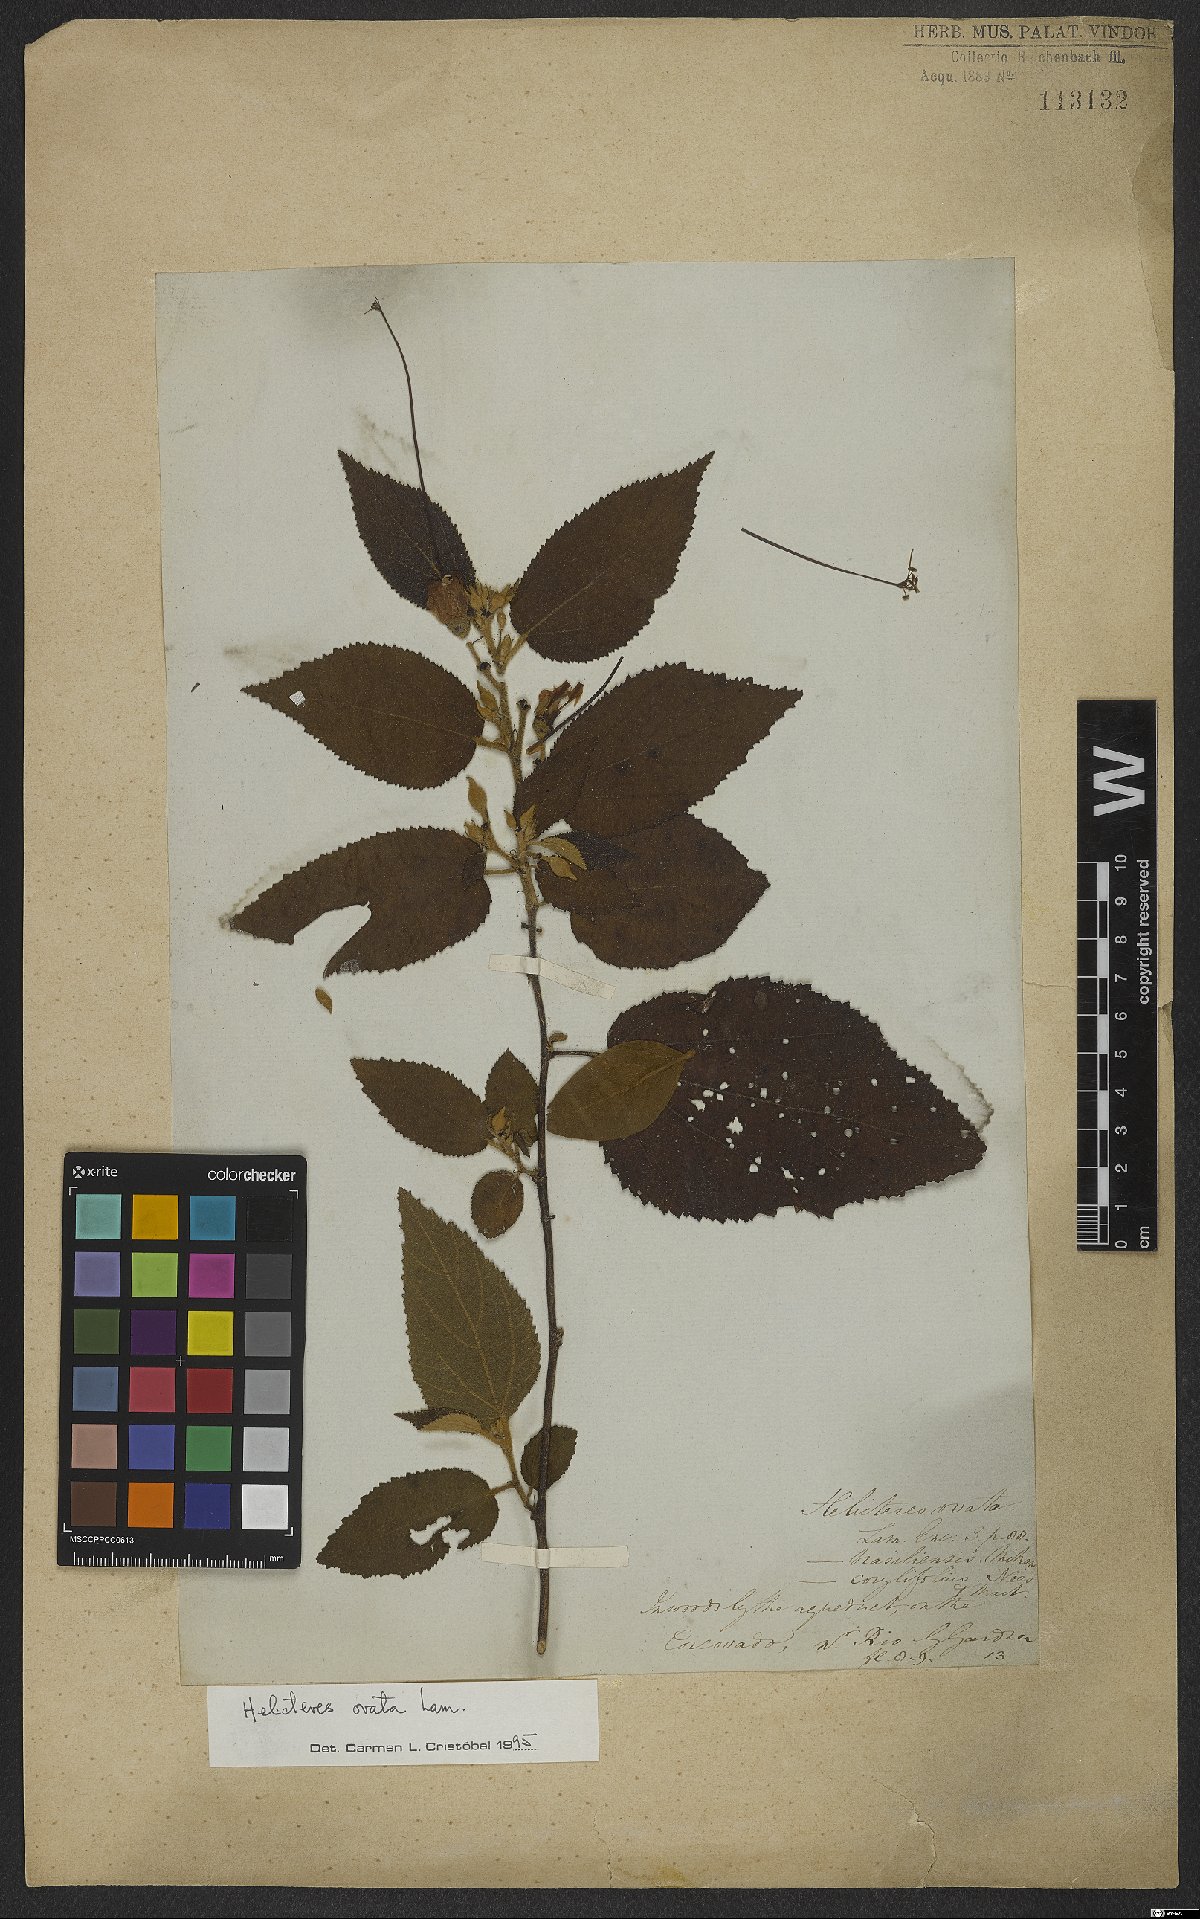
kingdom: Plantae
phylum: Tracheophyta
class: Magnoliopsida
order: Malvales
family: Malvaceae
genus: Helicteres
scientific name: Helicteres ovata
